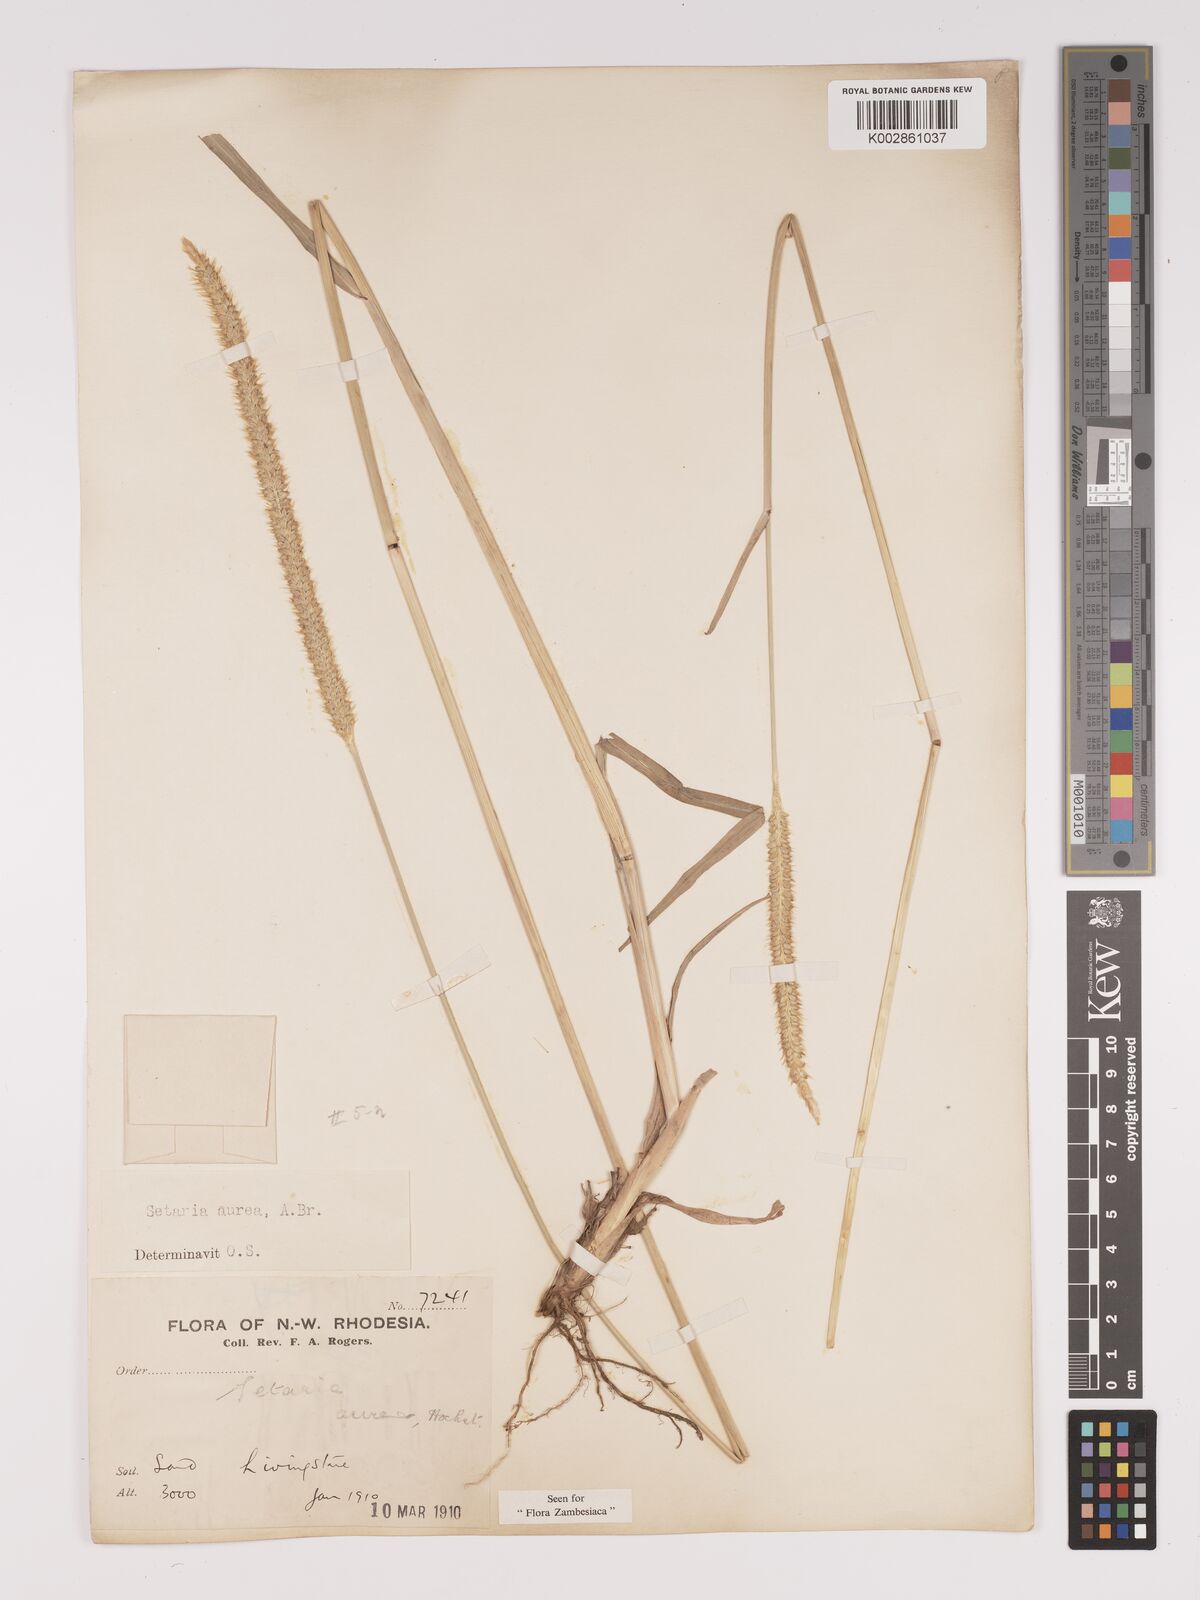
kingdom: Plantae
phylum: Tracheophyta
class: Liliopsida
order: Poales
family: Poaceae
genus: Setaria
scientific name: Setaria sphacelata
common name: African bristlegrass
